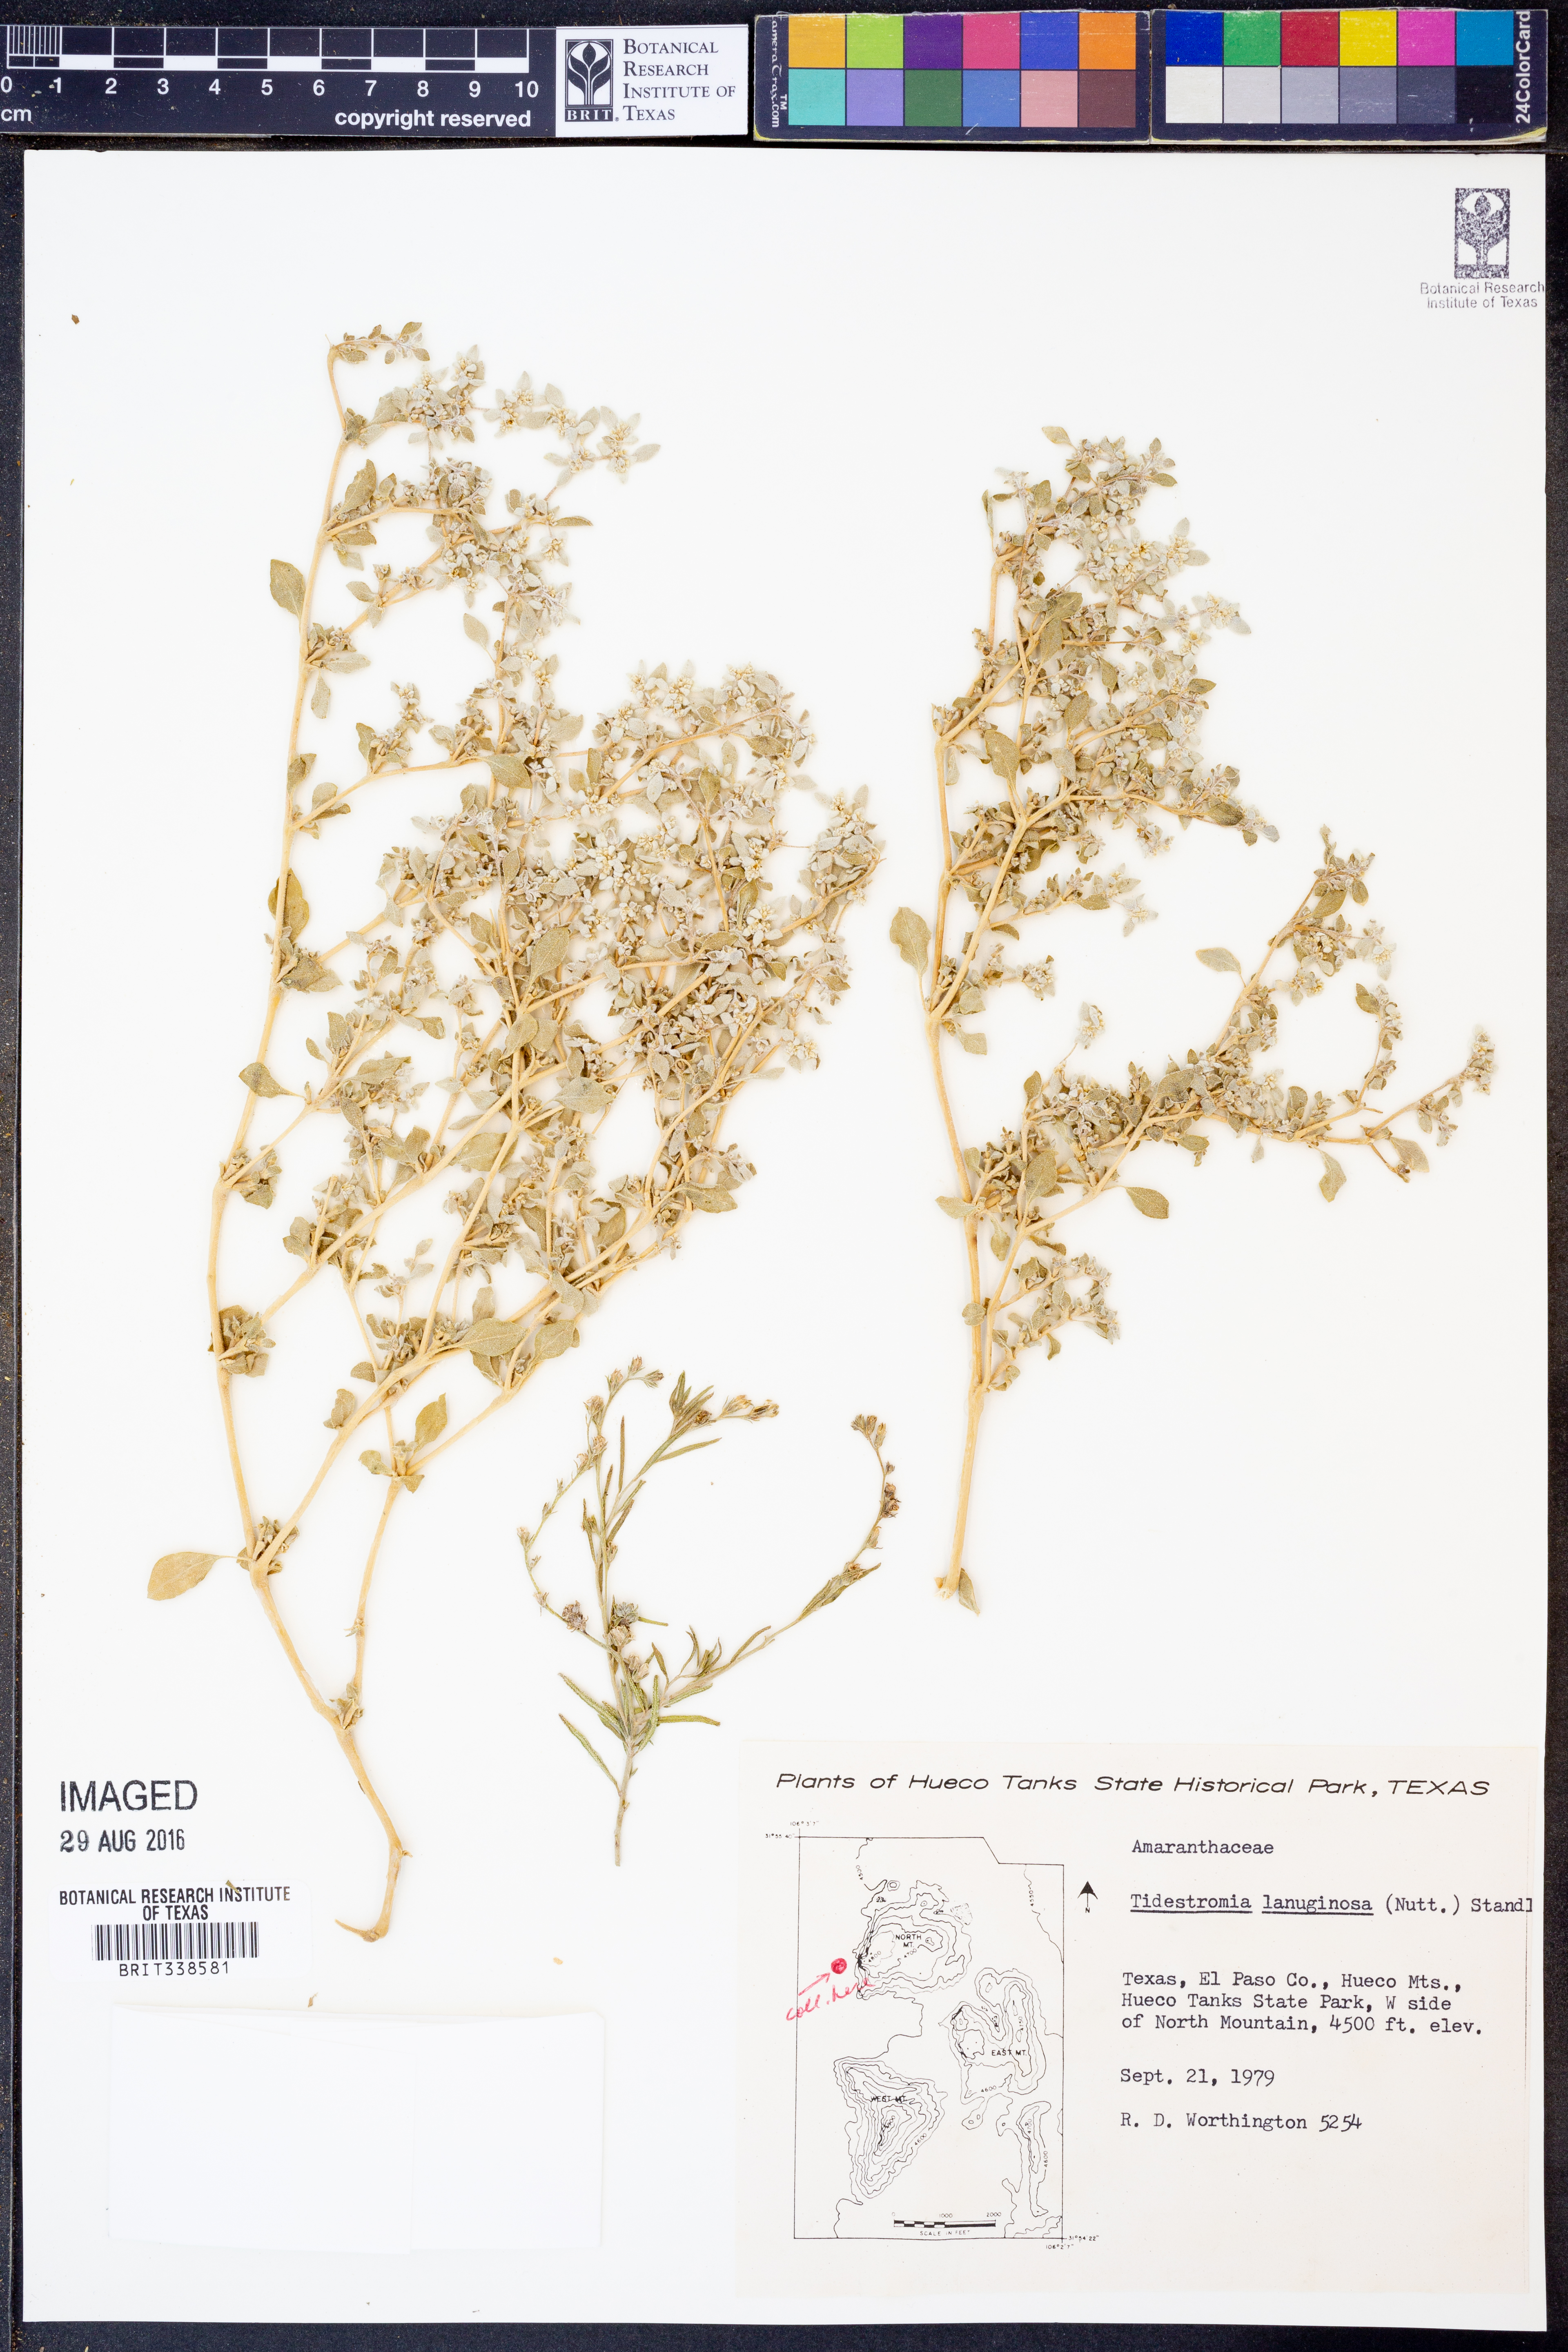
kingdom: Plantae
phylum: Tracheophyta
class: Magnoliopsida
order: Caryophyllales
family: Amaranthaceae
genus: Tidestromia
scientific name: Tidestromia lanuginosa
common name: Woolly tidestromia
